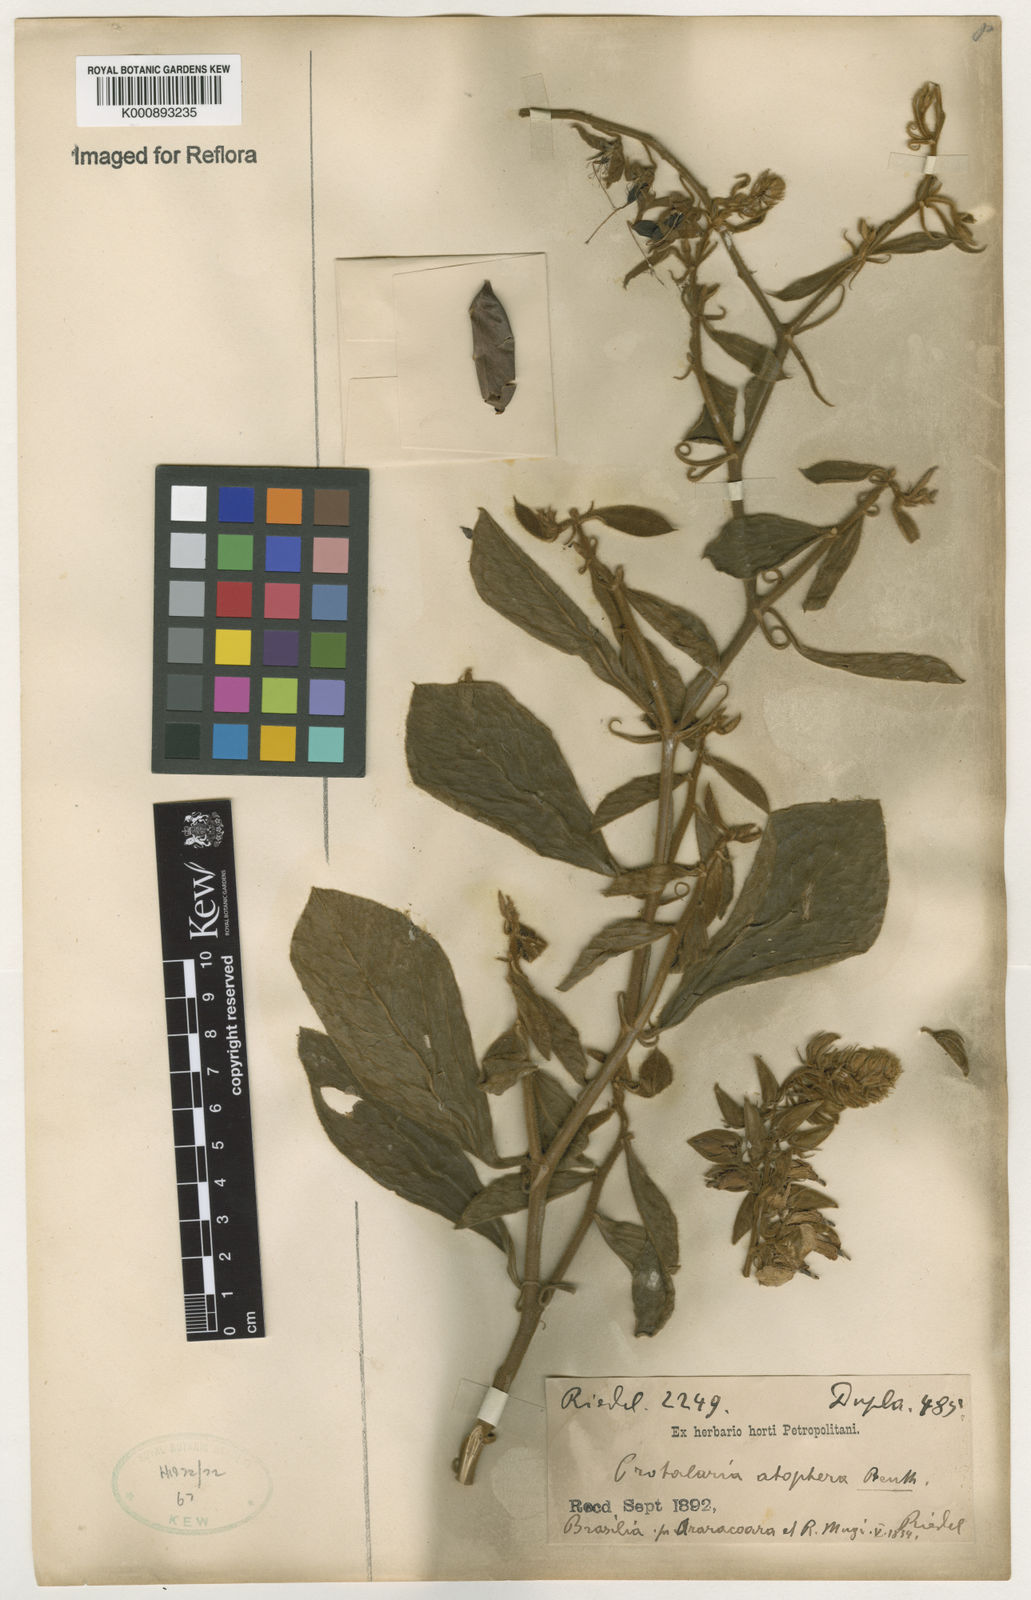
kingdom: Plantae
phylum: Tracheophyta
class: Magnoliopsida
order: Fabales
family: Fabaceae
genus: Crotalaria
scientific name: Crotalaria otoptera
